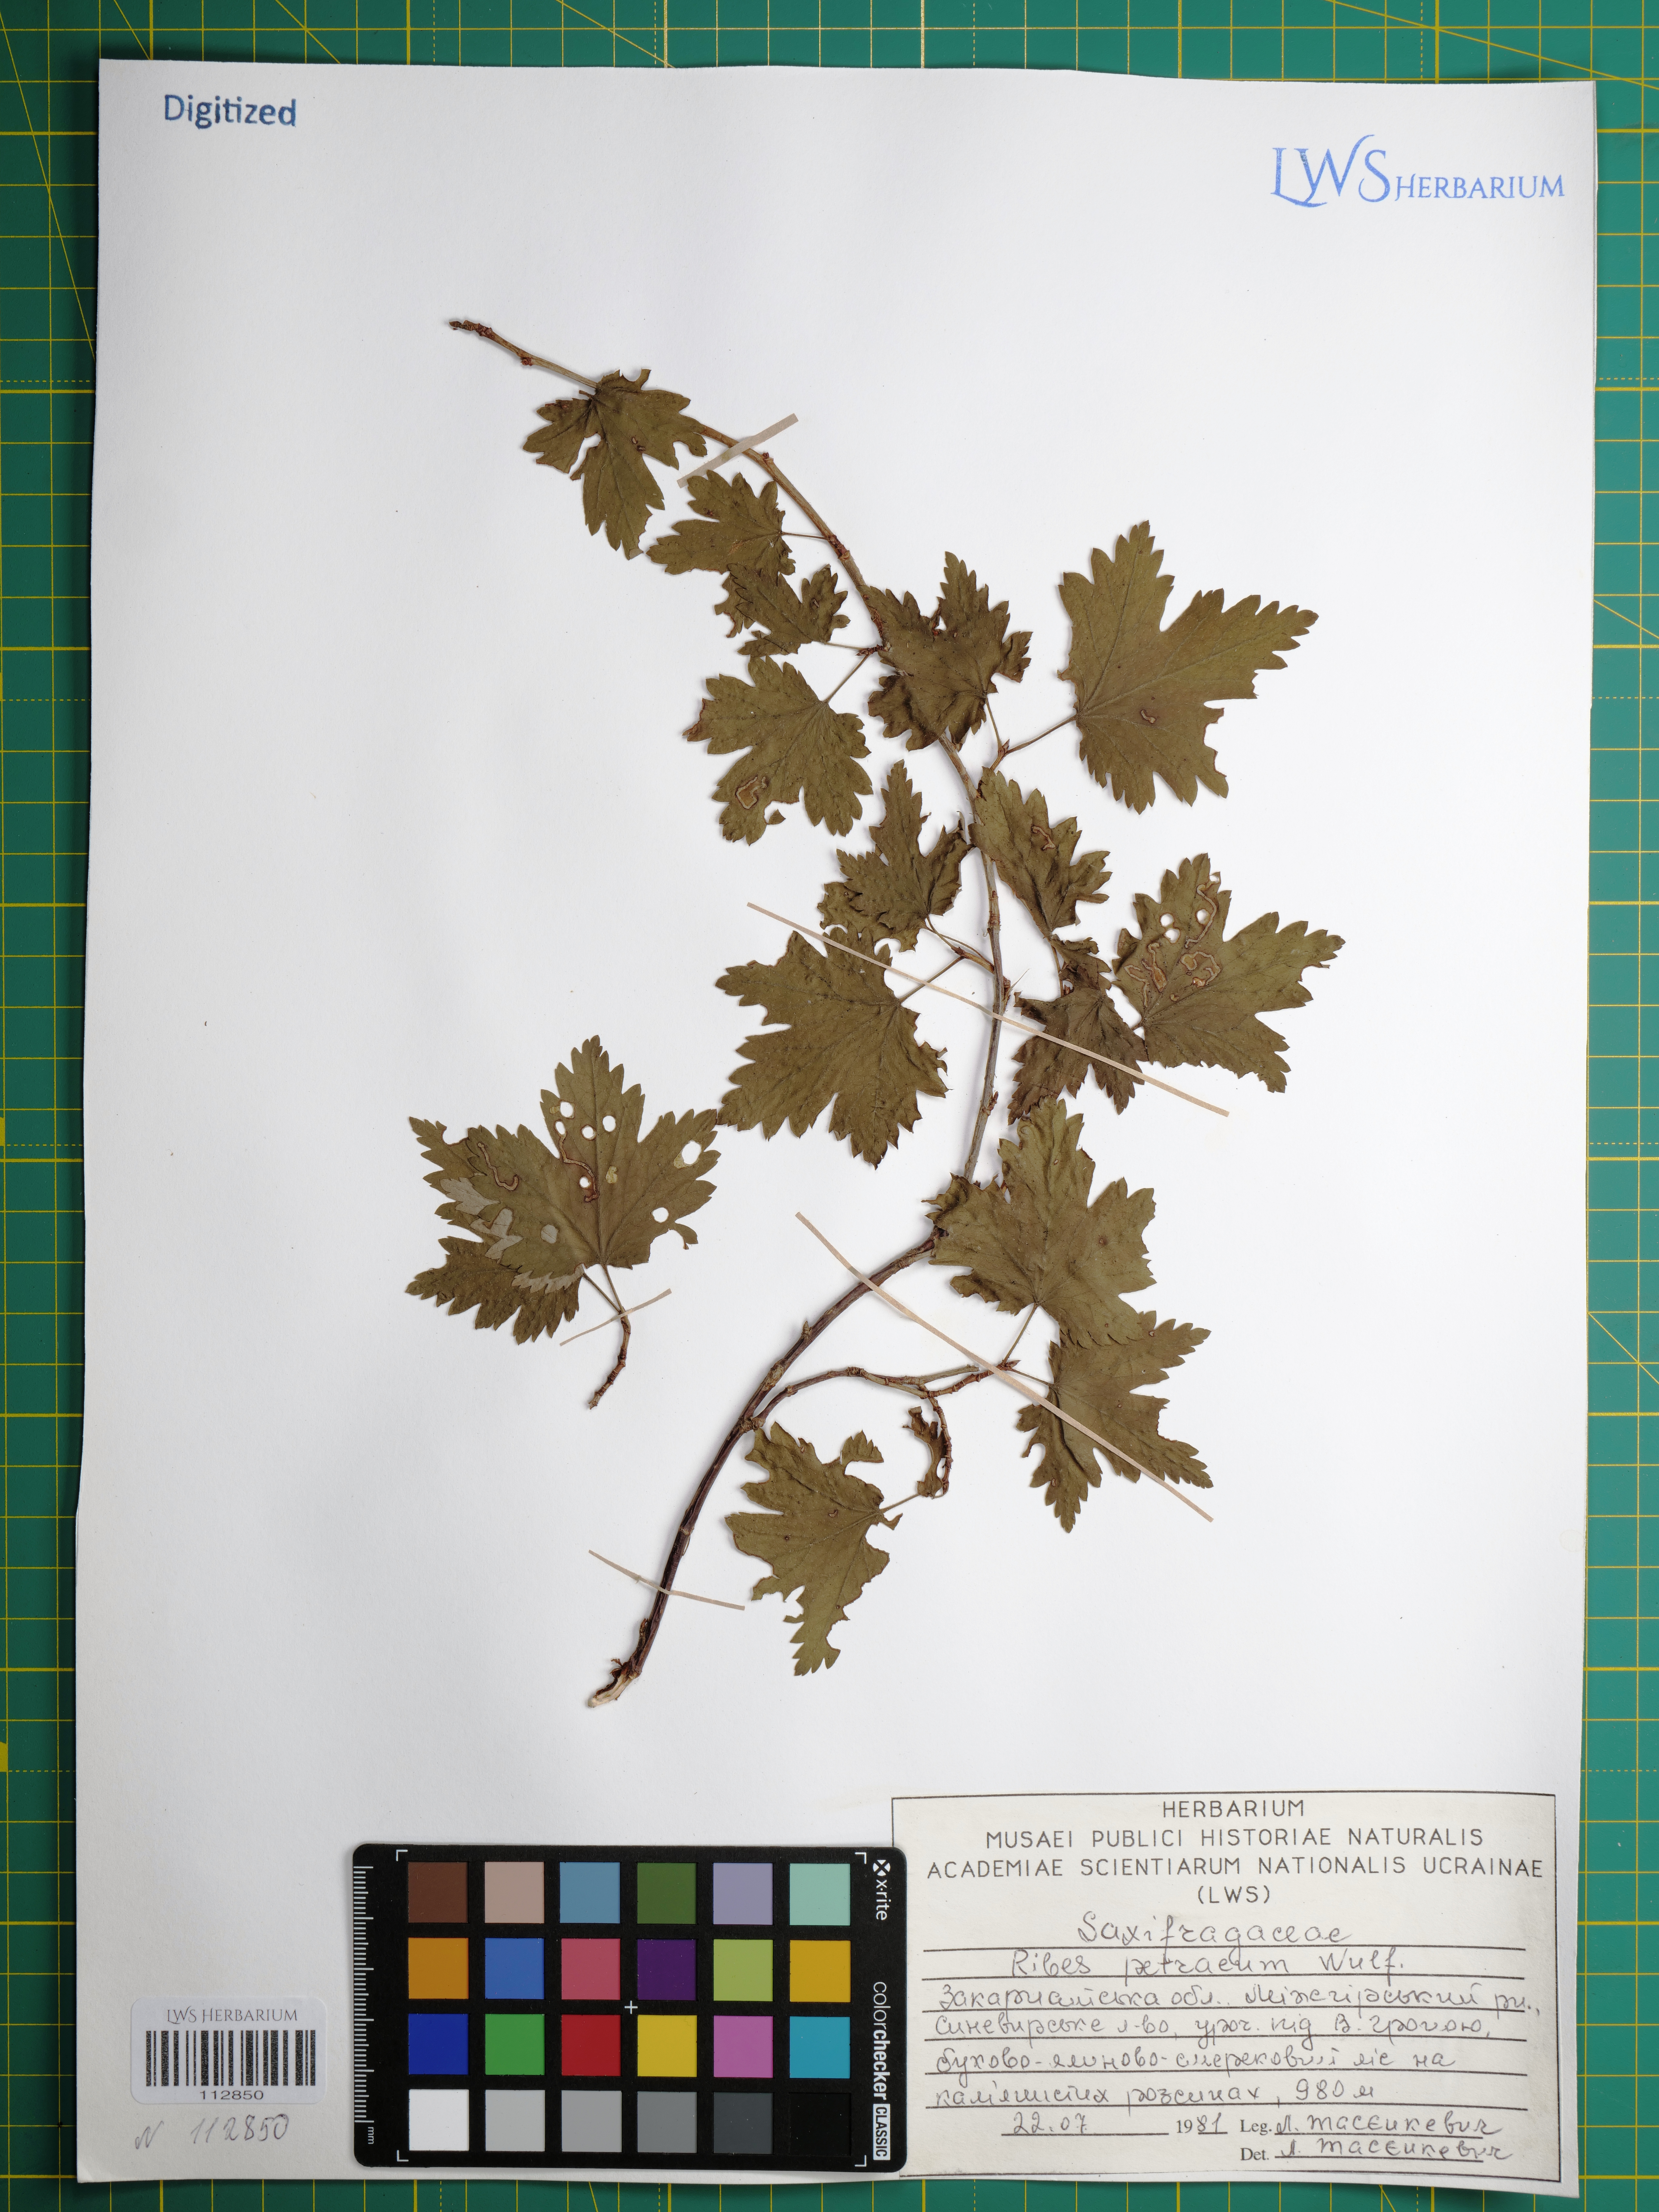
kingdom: Plantae
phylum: Tracheophyta
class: Magnoliopsida
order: Saxifragales
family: Grossulariaceae
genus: Ribes
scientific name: Ribes petraeum
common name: Rock currant
